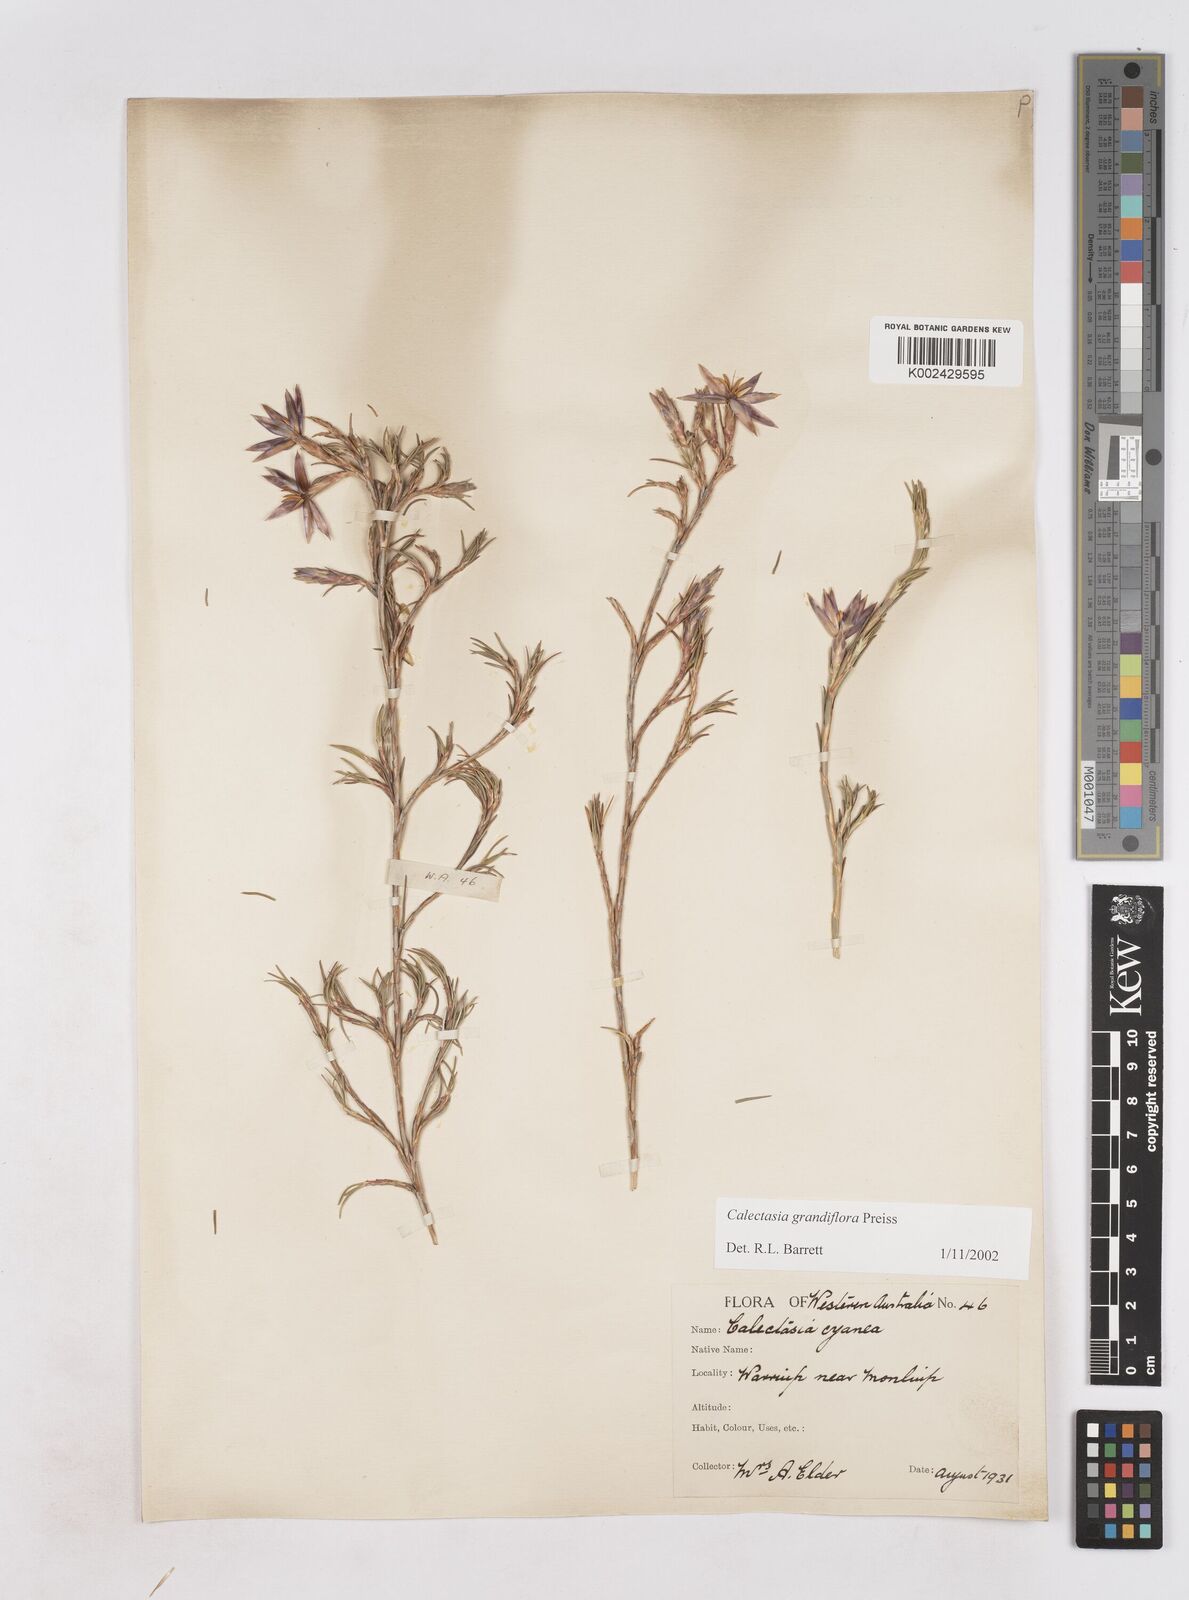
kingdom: Plantae
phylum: Tracheophyta
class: Liliopsida
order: Arecales
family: Dasypogonaceae
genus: Calectasia
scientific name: Calectasia grandiflora
